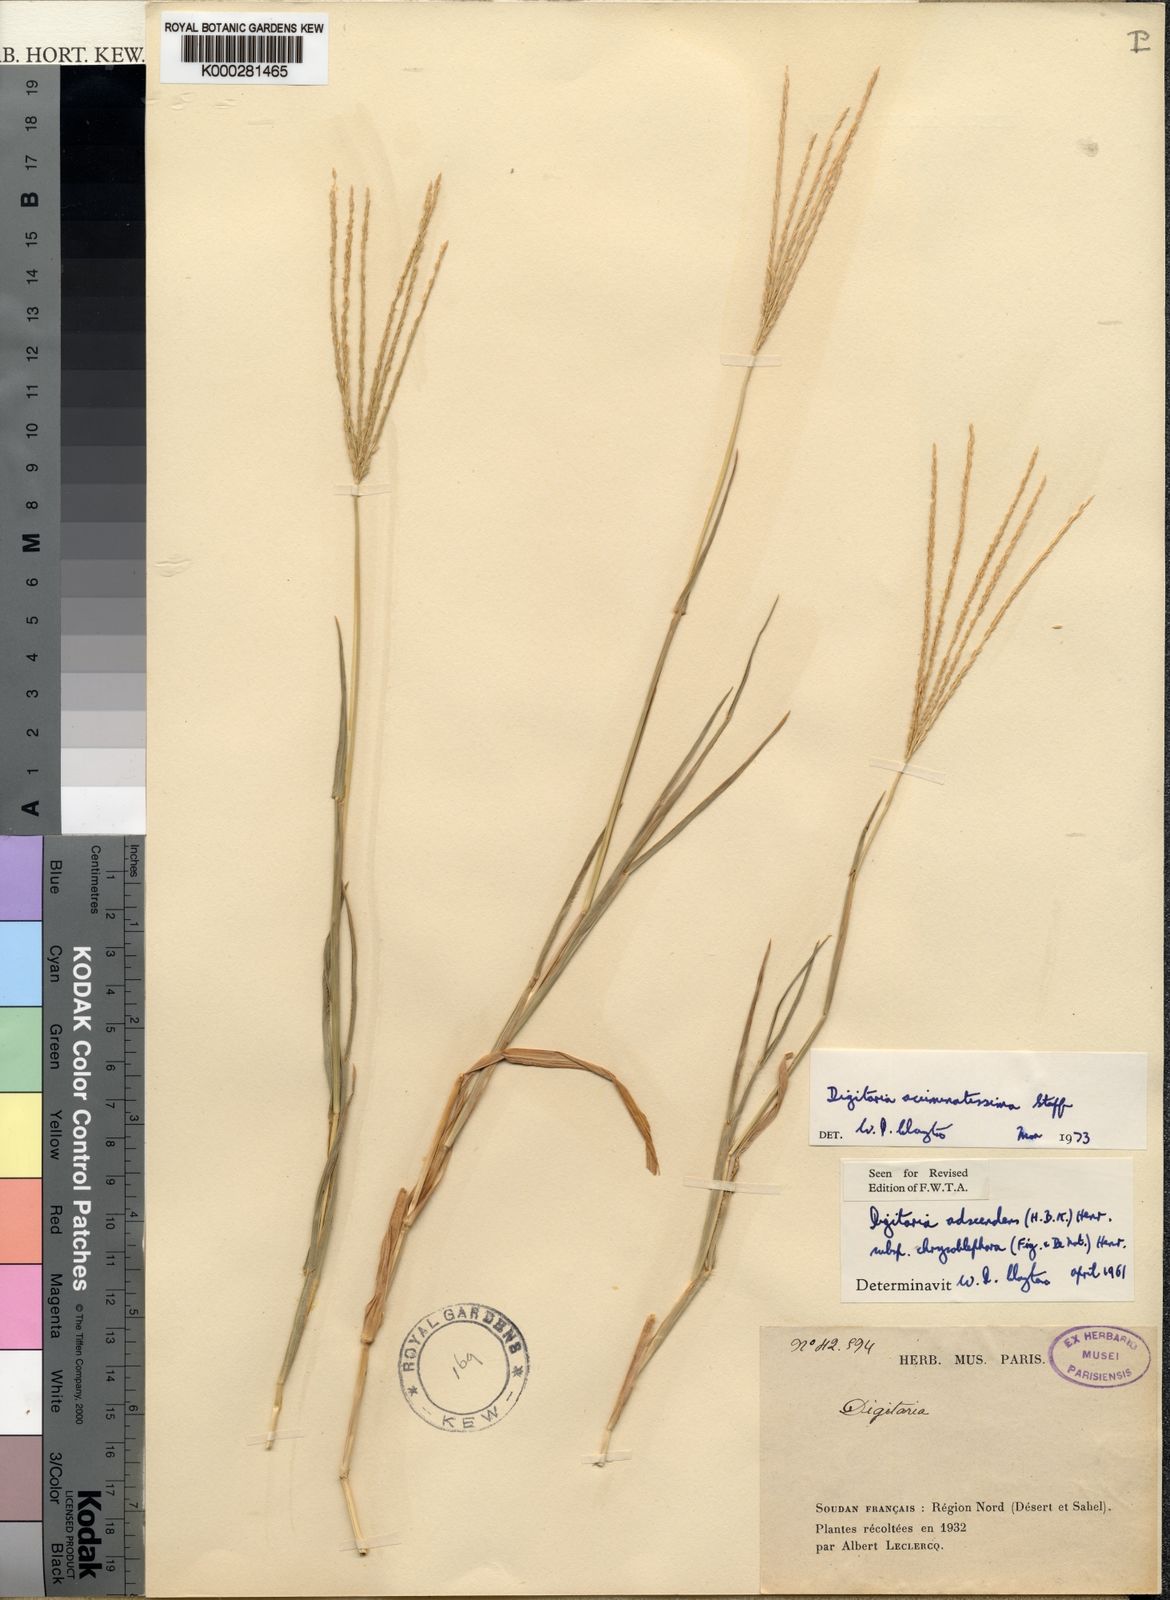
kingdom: Plantae
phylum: Tracheophyta
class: Liliopsida
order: Poales
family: Poaceae
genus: Digitaria
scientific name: Digitaria acuminatissima
